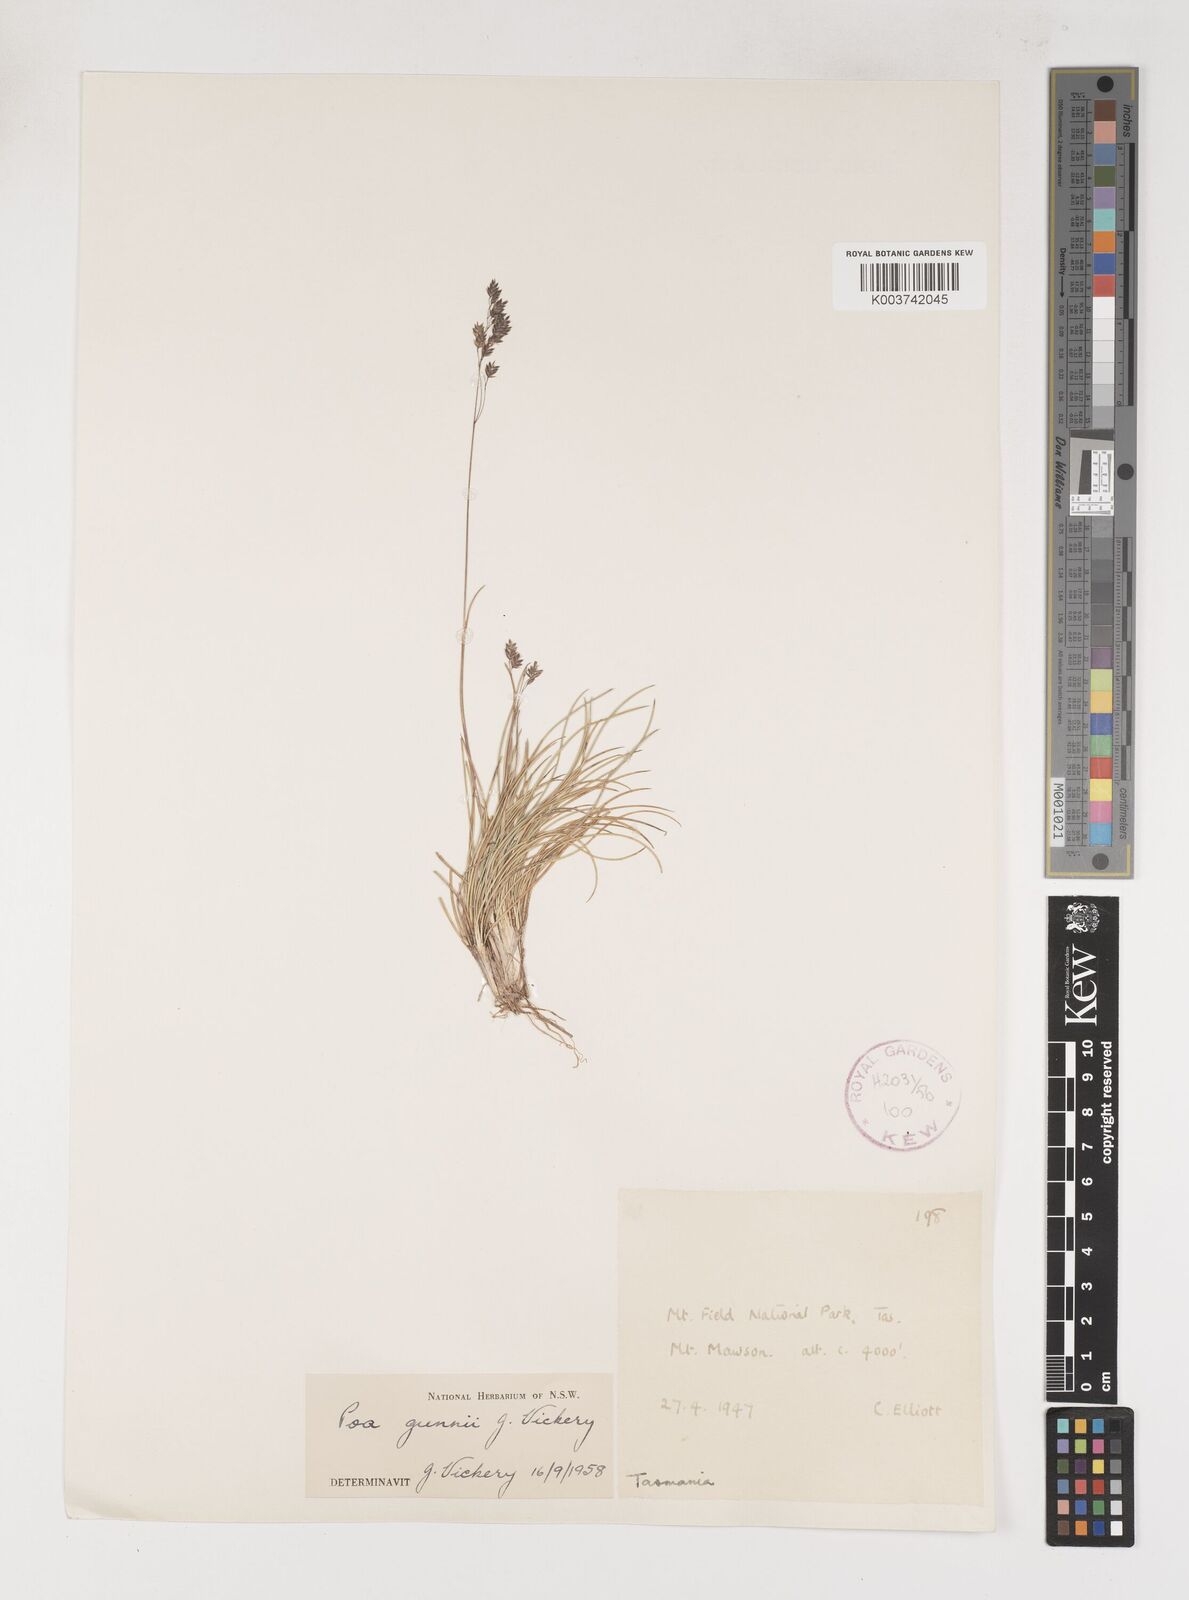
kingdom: Plantae
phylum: Tracheophyta
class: Liliopsida
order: Poales
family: Poaceae
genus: Poa
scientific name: Poa gunnii
